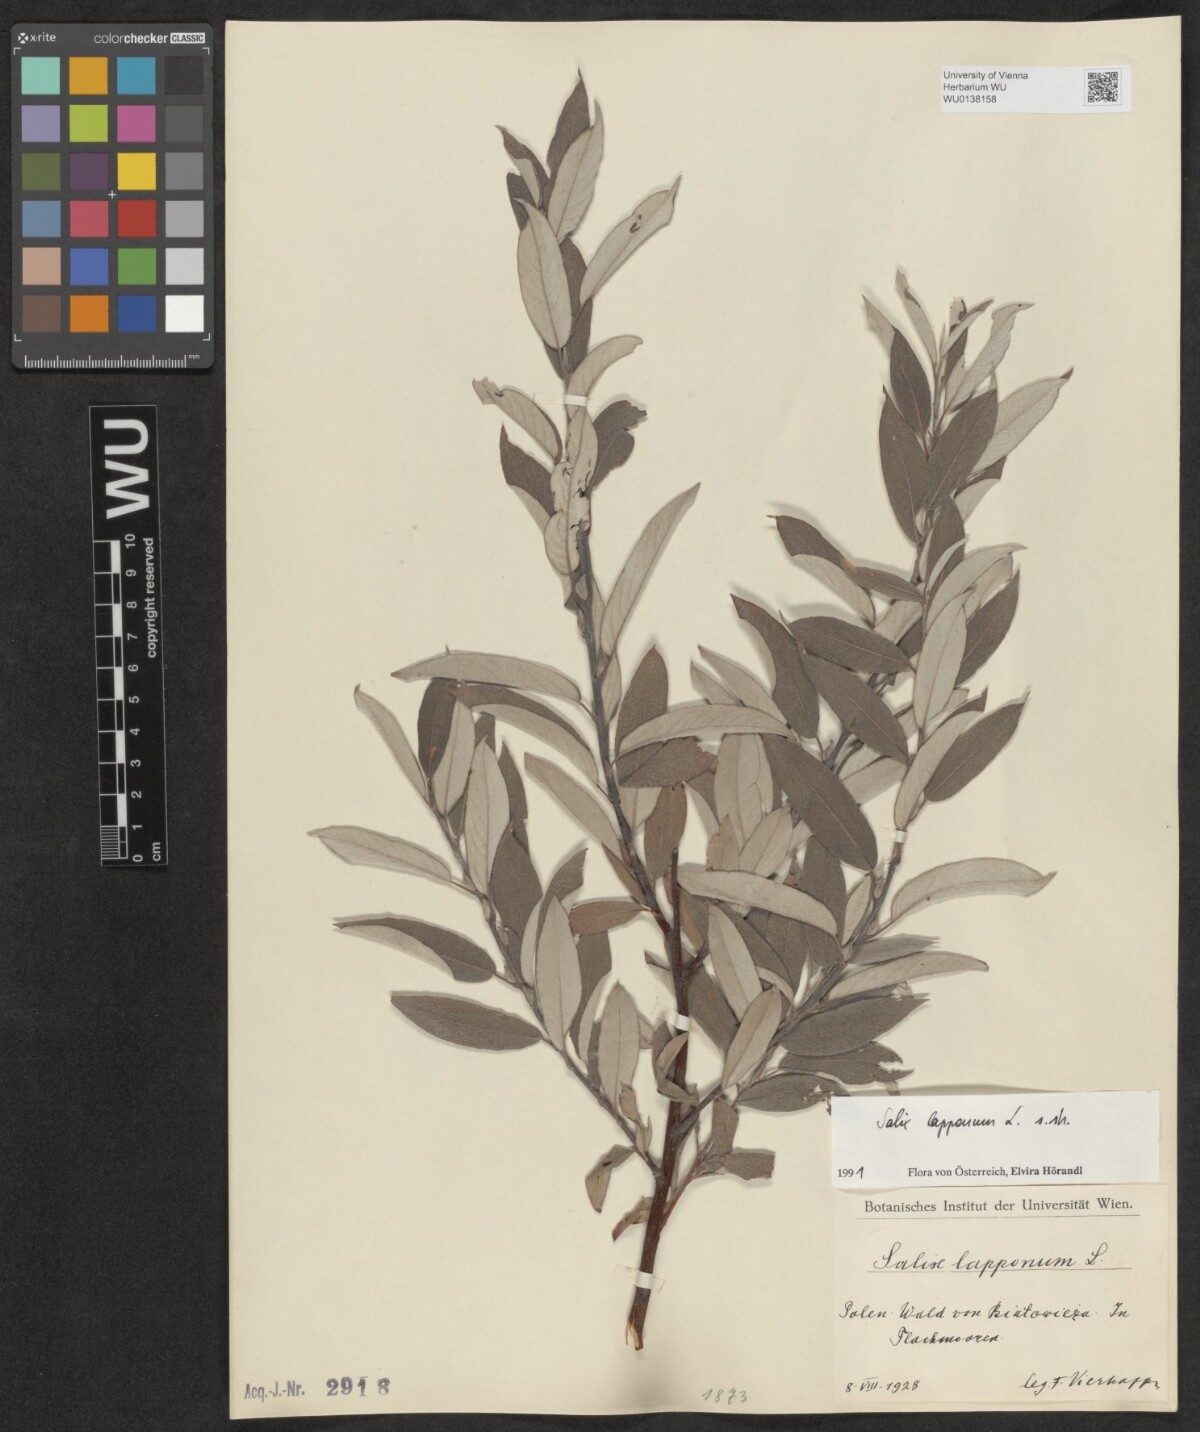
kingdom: Plantae
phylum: Tracheophyta
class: Magnoliopsida
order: Malpighiales
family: Salicaceae
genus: Salix
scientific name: Salix lapponum
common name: Downy willow
